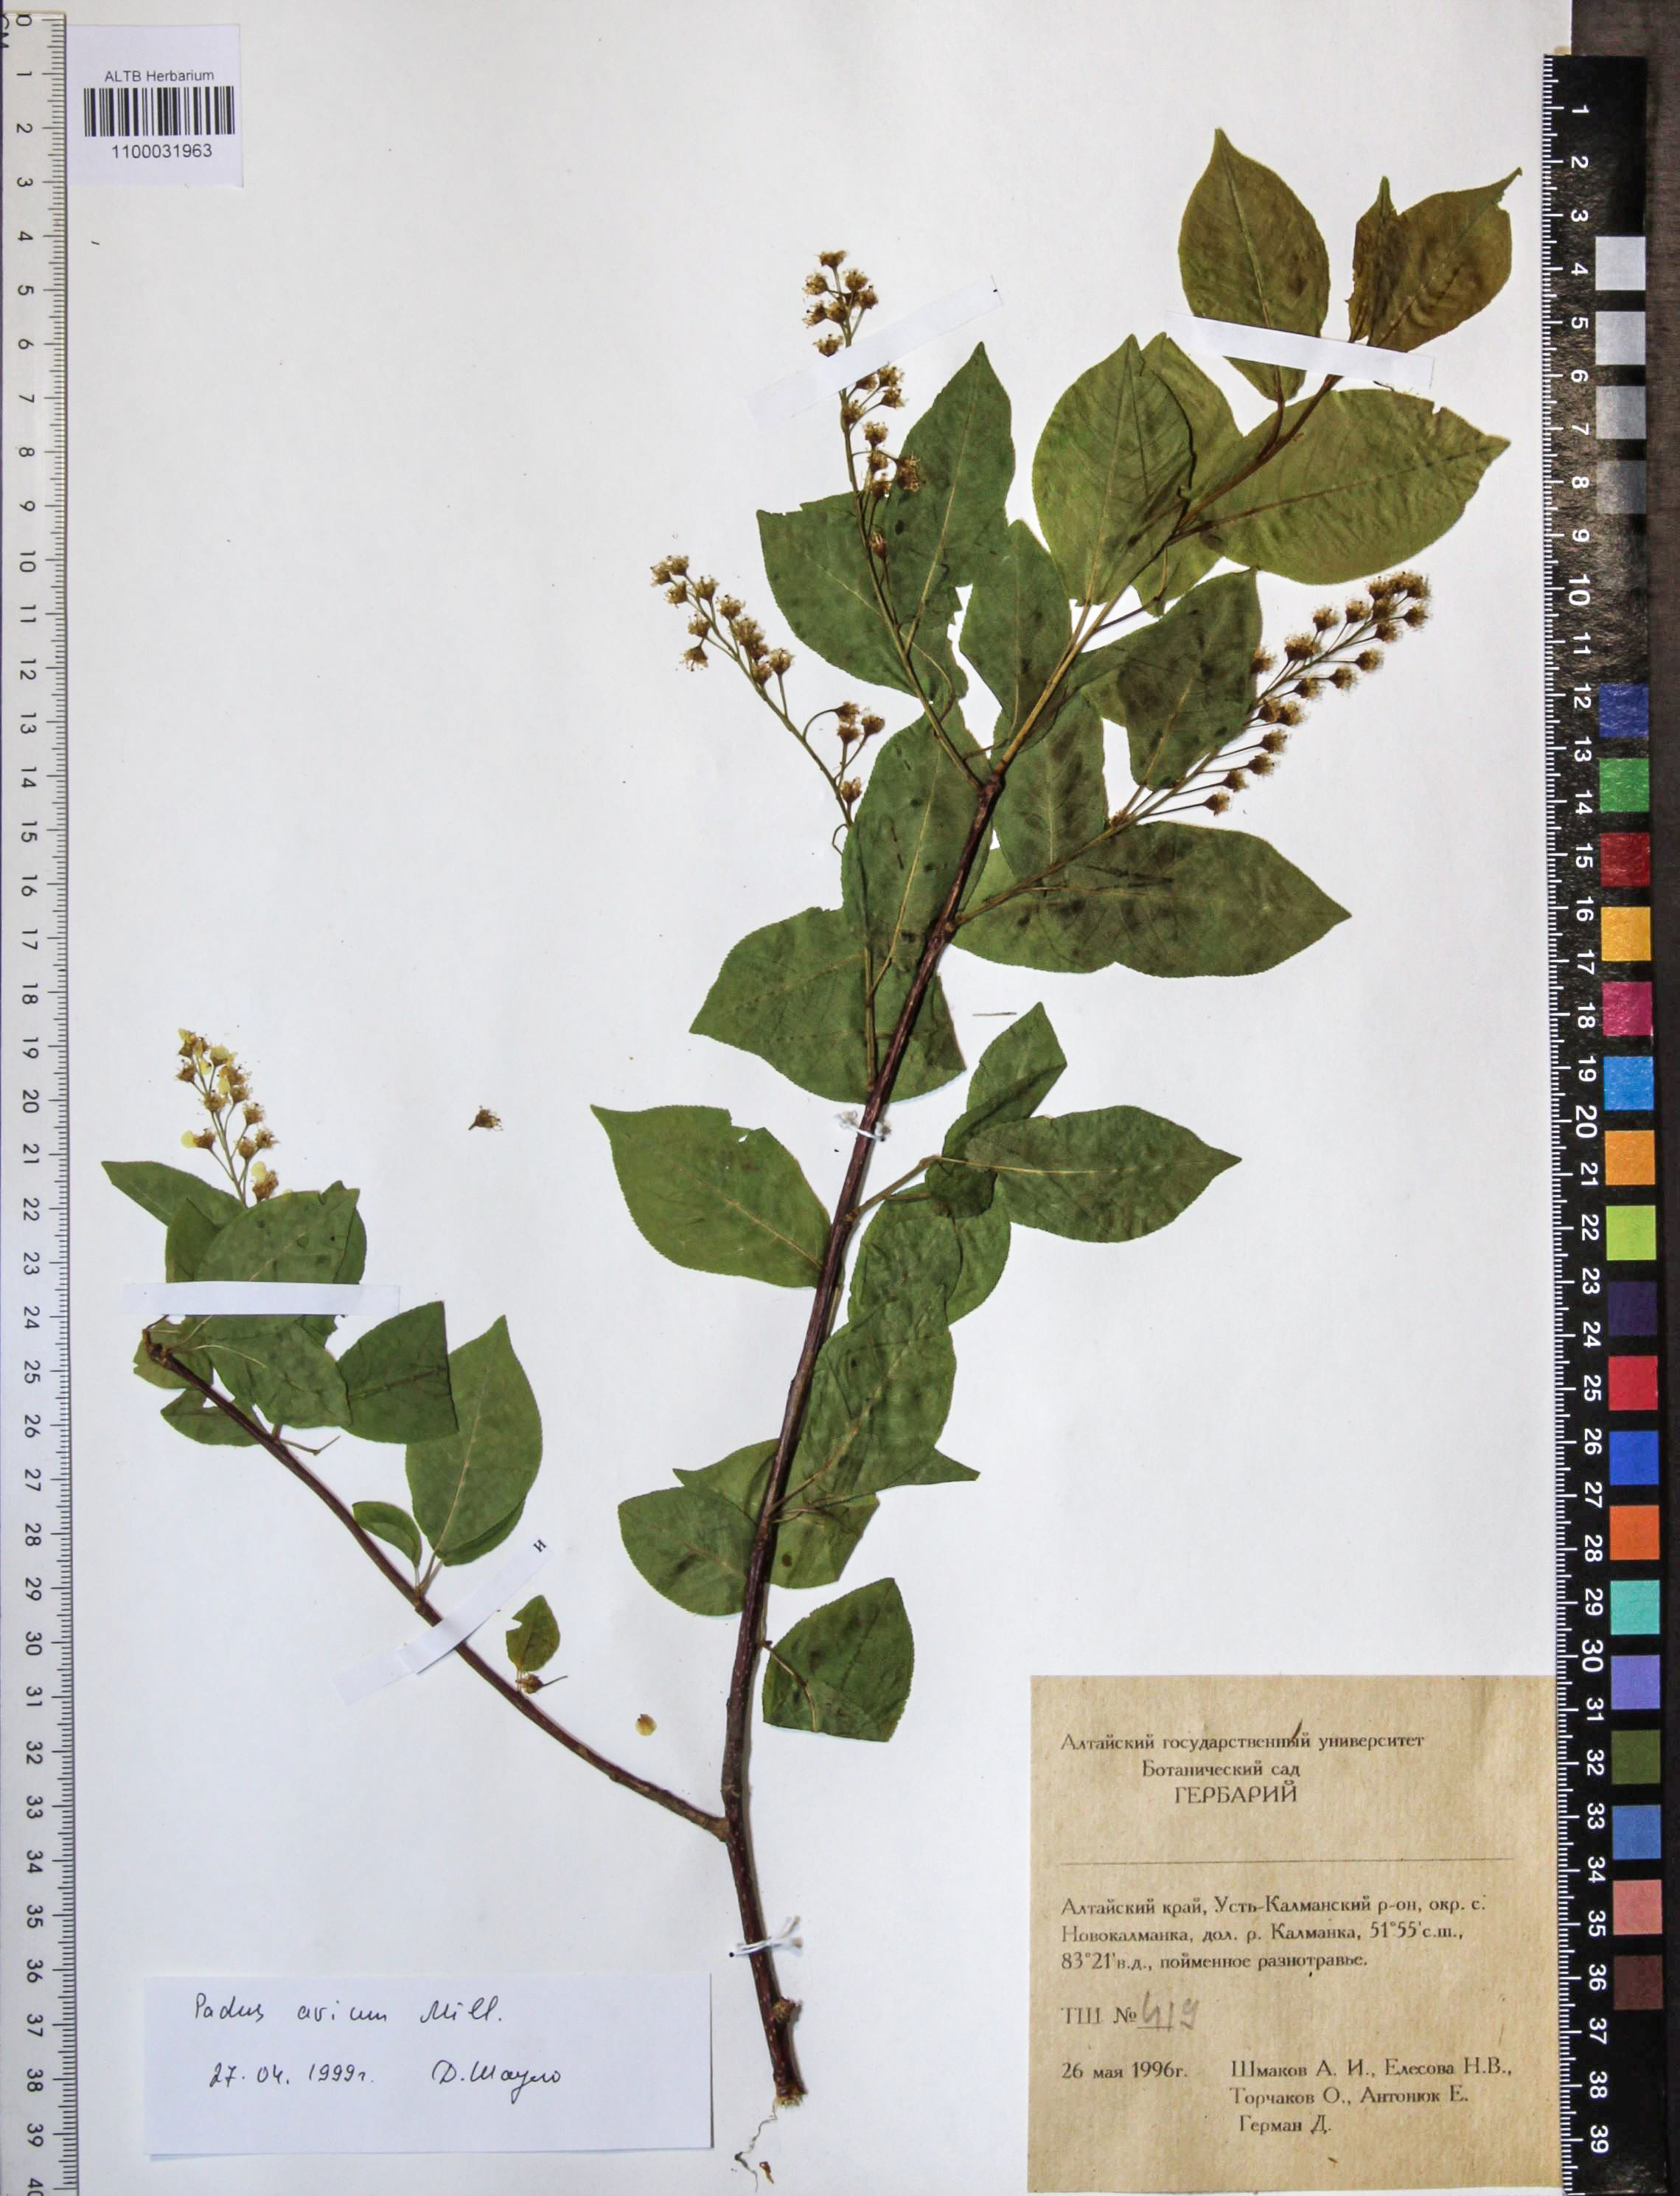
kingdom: Plantae
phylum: Tracheophyta
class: Magnoliopsida
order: Rosales
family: Rosaceae
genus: Prunus
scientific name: Prunus padus
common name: Bird cherry
